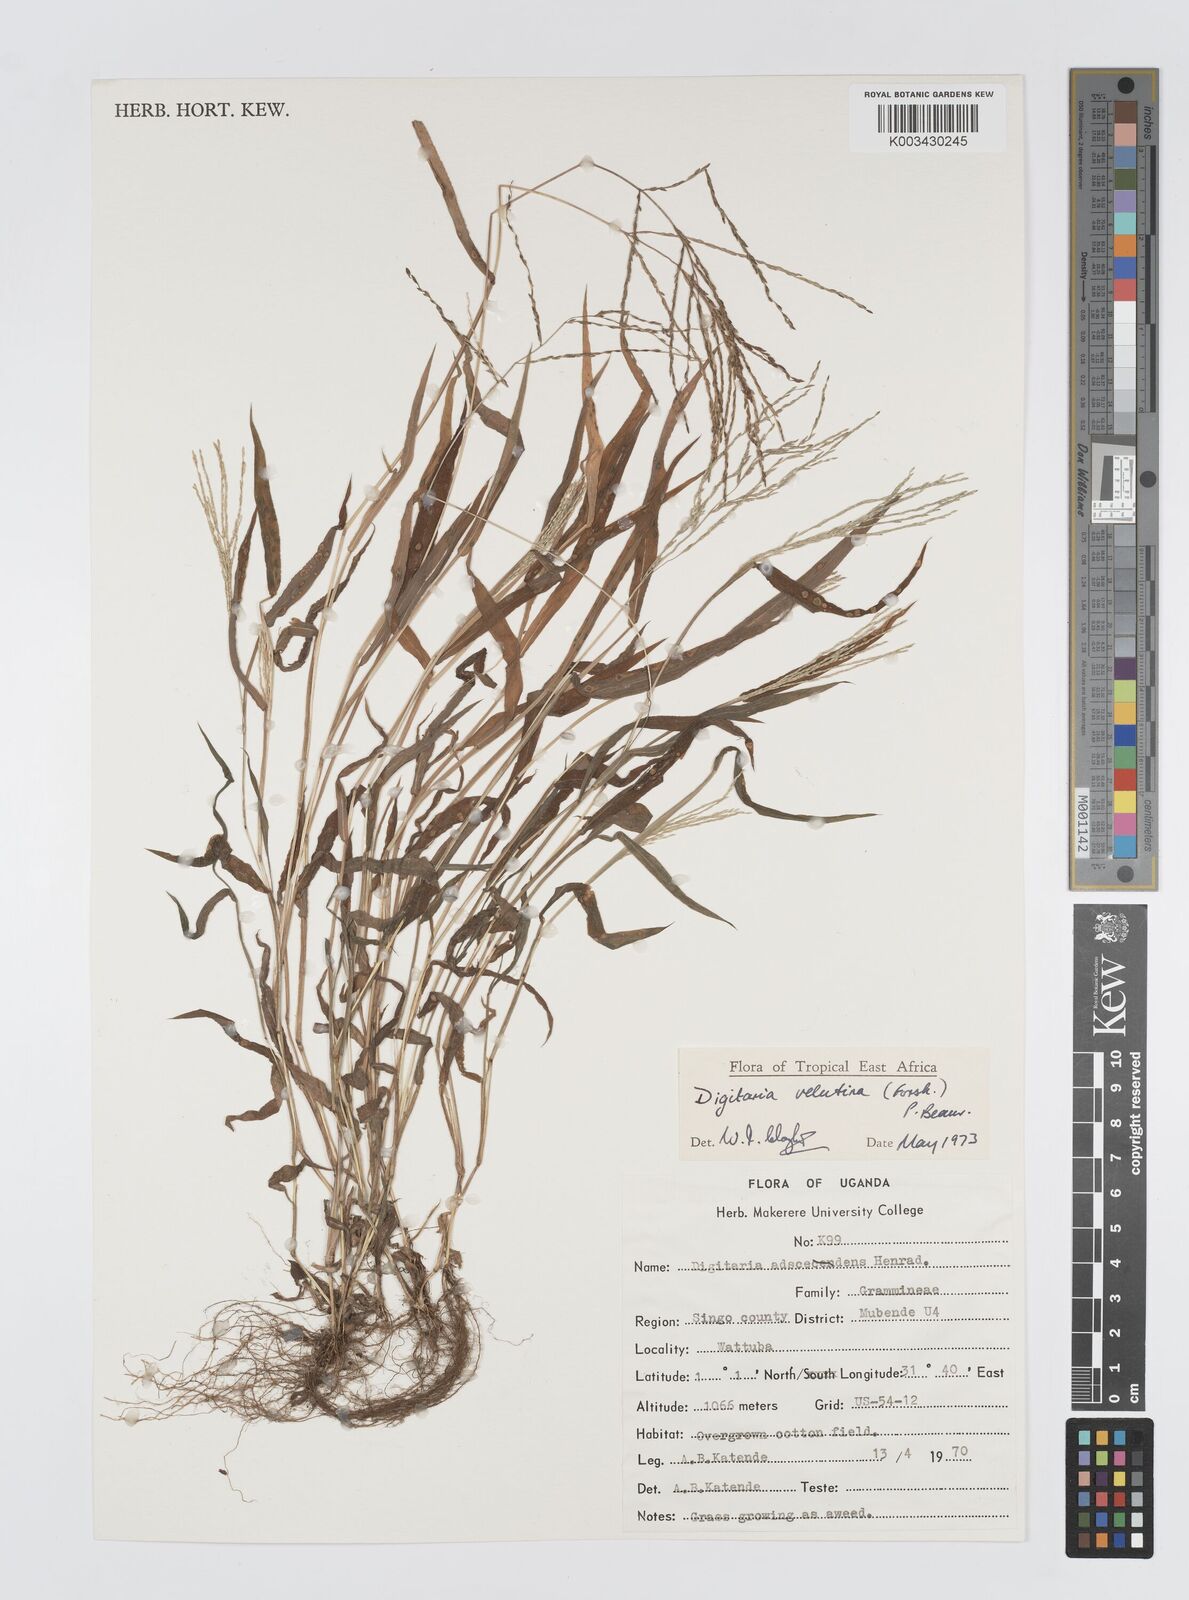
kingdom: Plantae
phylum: Tracheophyta
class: Liliopsida
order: Poales
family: Poaceae
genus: Digitaria
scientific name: Digitaria velutina
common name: Long-plume finger grass
